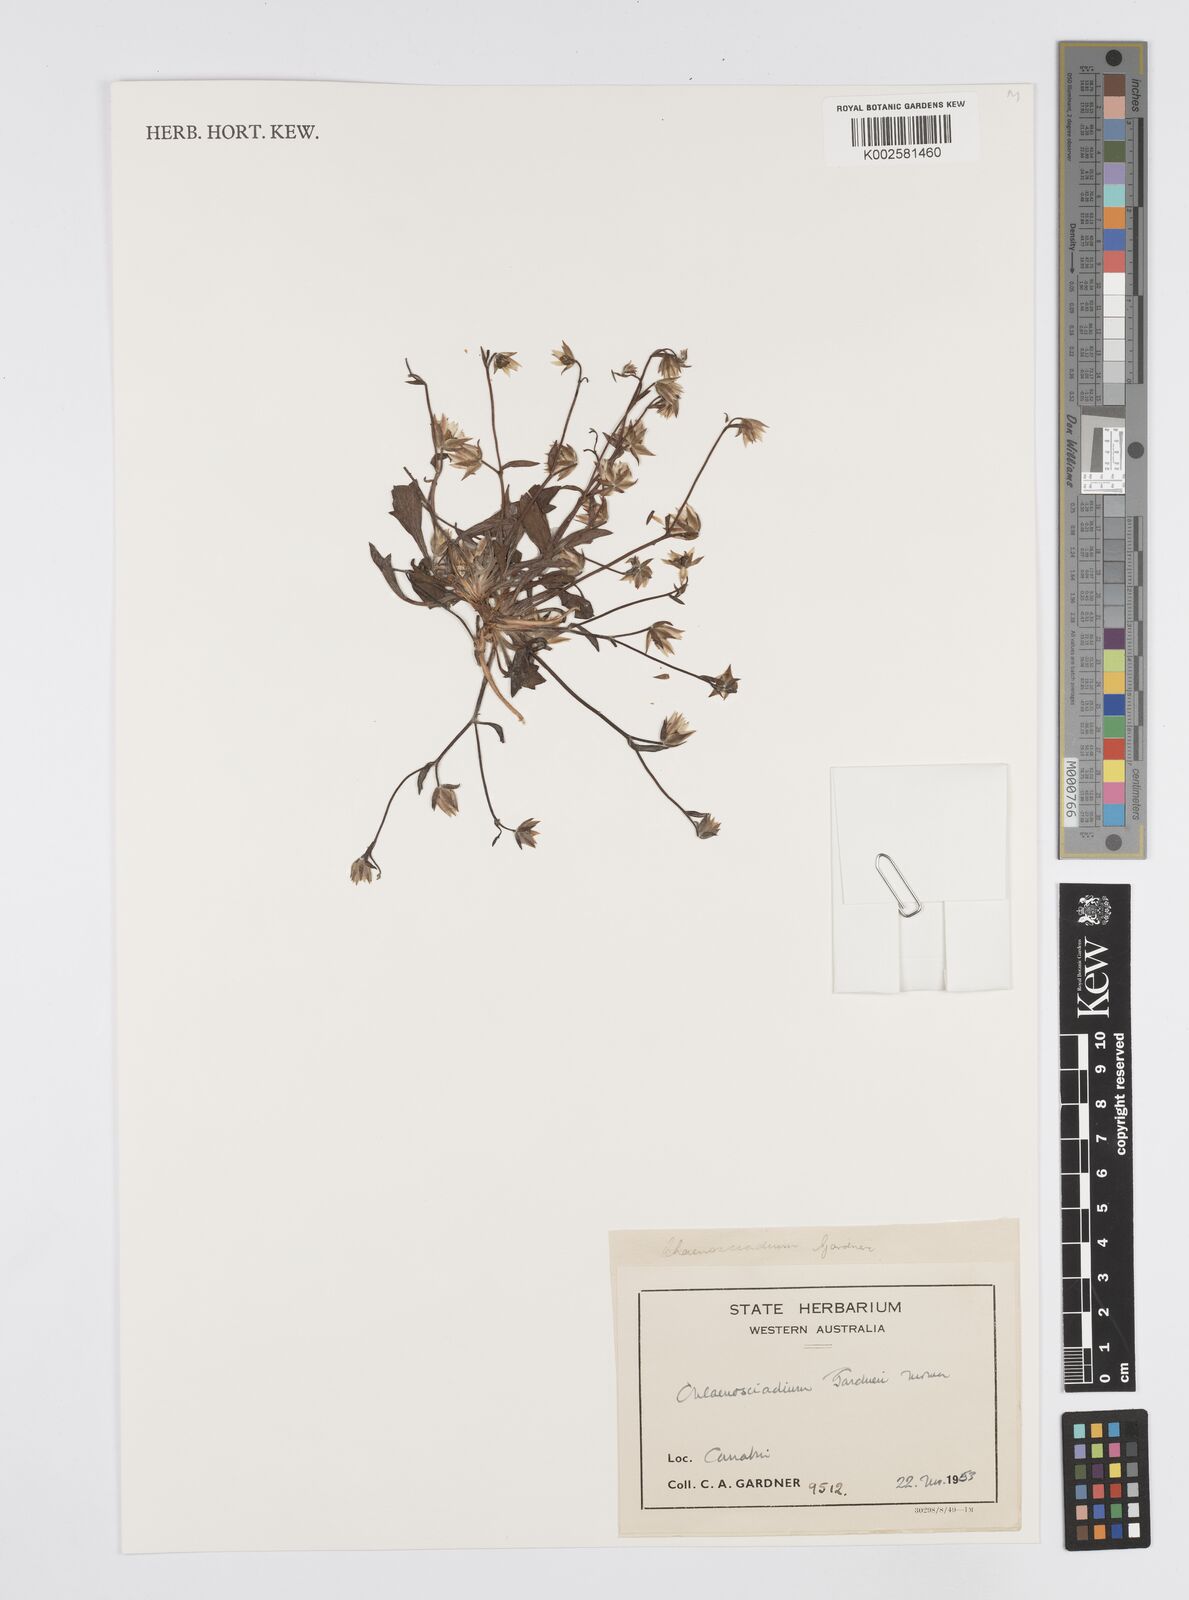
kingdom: Plantae
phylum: Tracheophyta
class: Magnoliopsida
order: Apiales
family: Apiaceae
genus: Centella
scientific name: Centella
